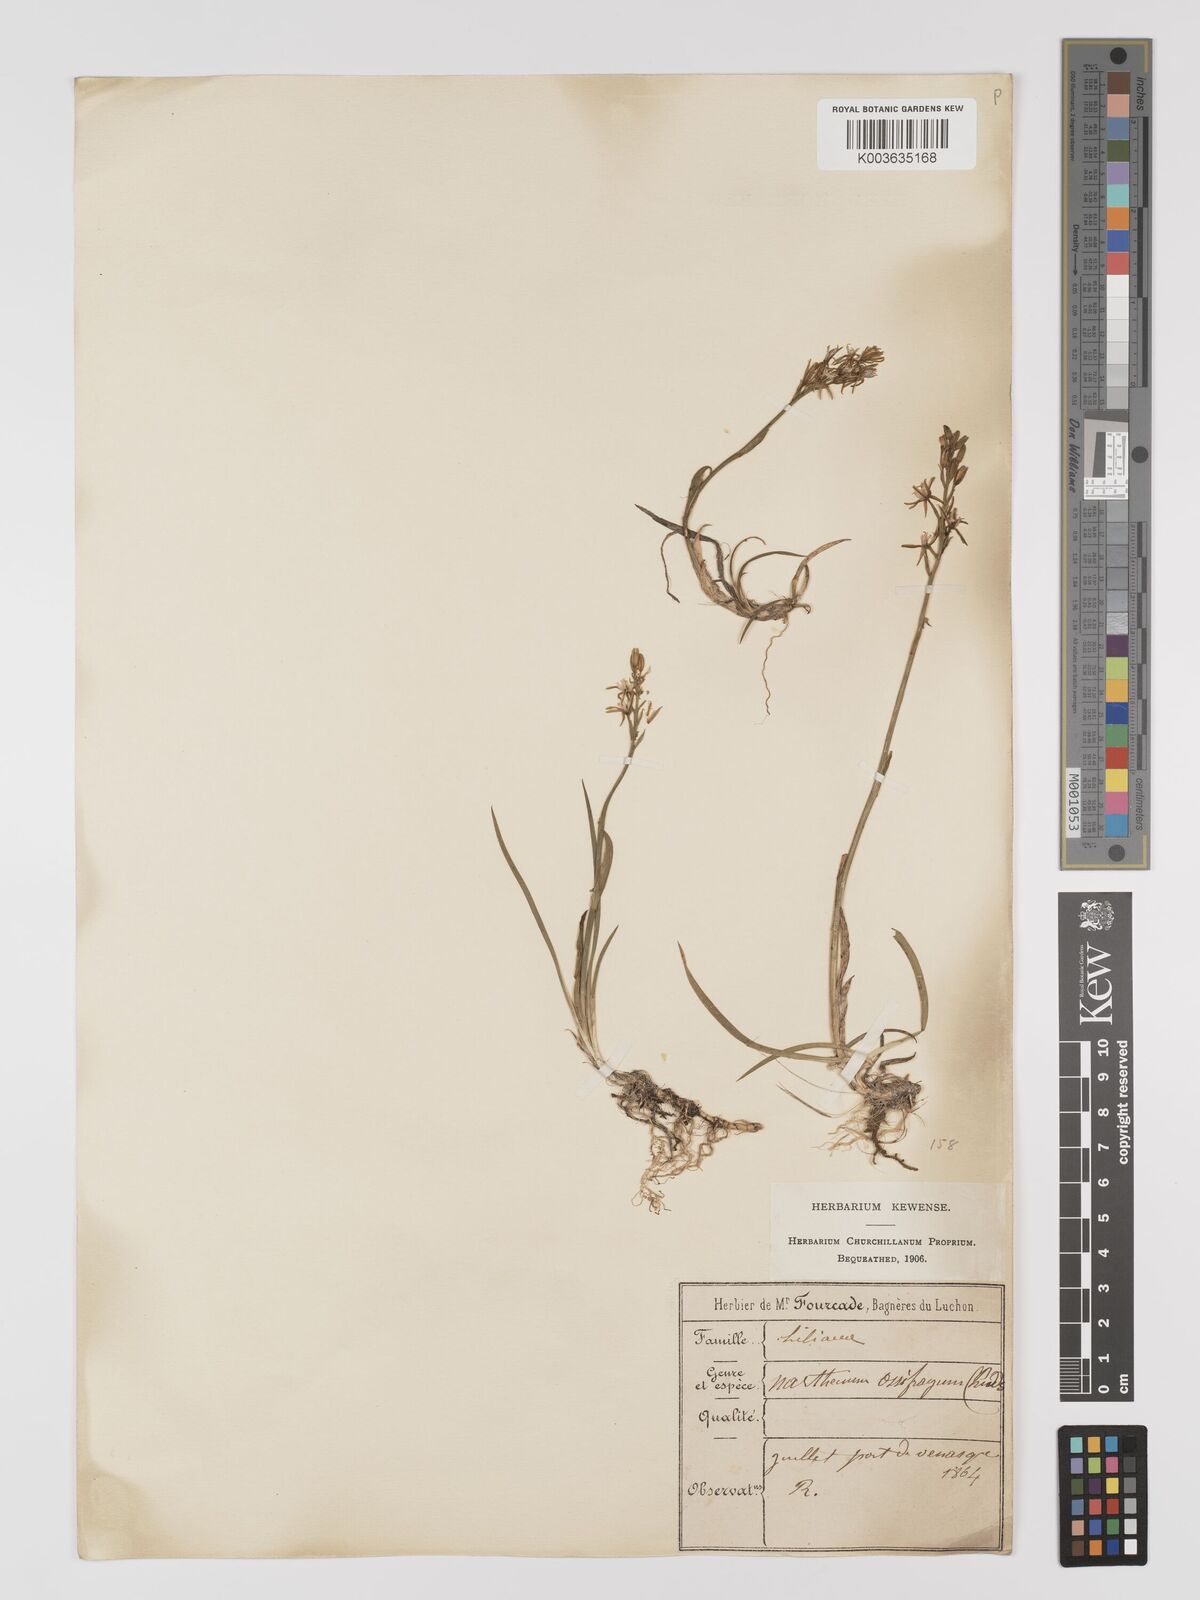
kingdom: Plantae
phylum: Tracheophyta
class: Liliopsida
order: Dioscoreales
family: Nartheciaceae
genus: Narthecium
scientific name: Narthecium ossifragum
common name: Bog asphodel
